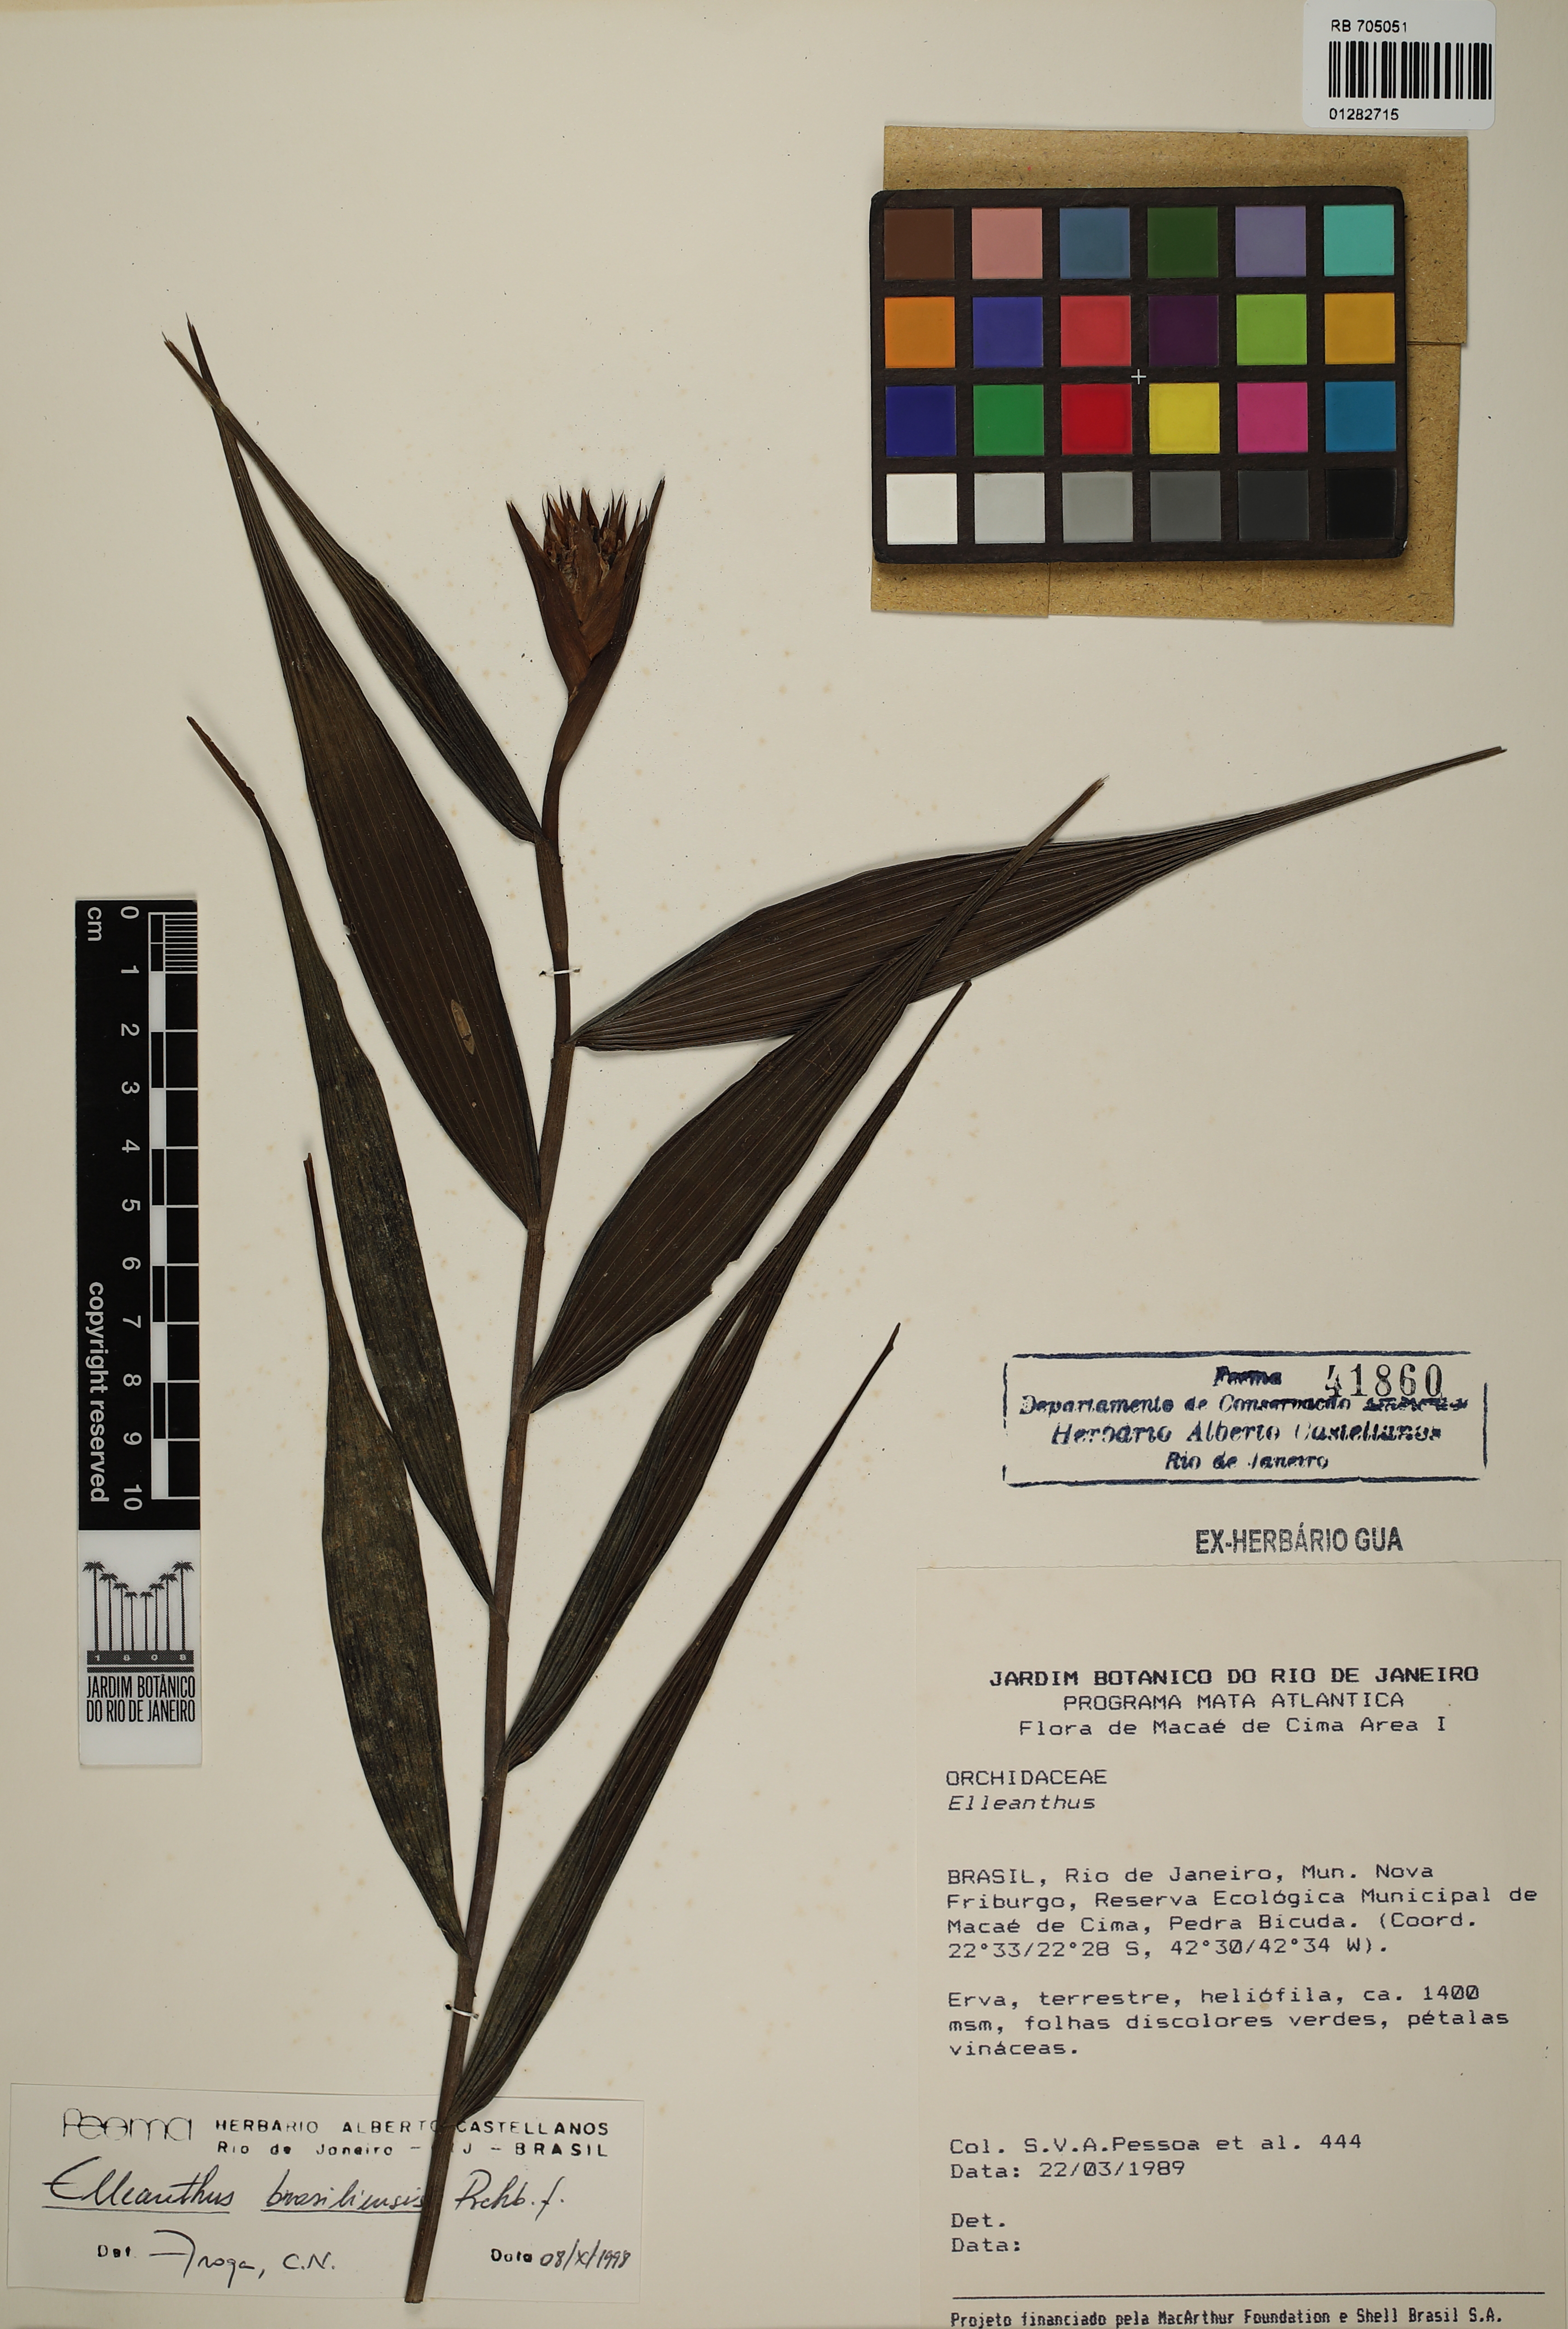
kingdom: Plantae
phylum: Tracheophyta
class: Liliopsida
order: Asparagales
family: Orchidaceae
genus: Elleanthus
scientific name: Elleanthus brasiliensis
